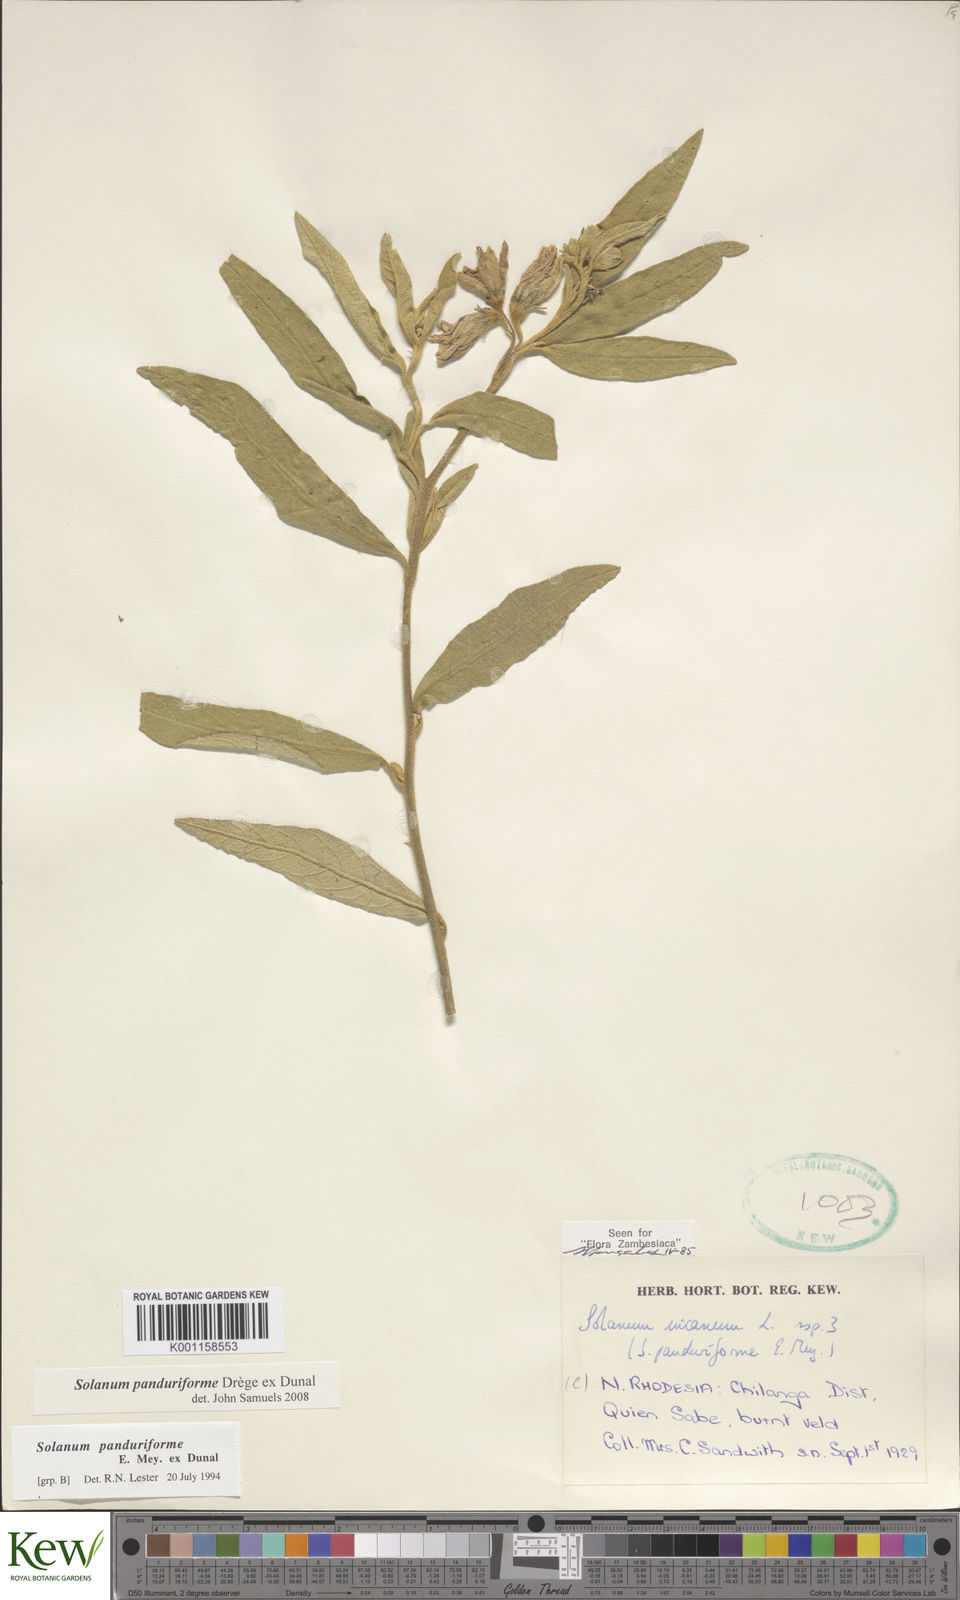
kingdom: Plantae
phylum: Tracheophyta
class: Magnoliopsida
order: Solanales
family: Solanaceae
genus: Solanum
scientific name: Solanum campylacanthum
